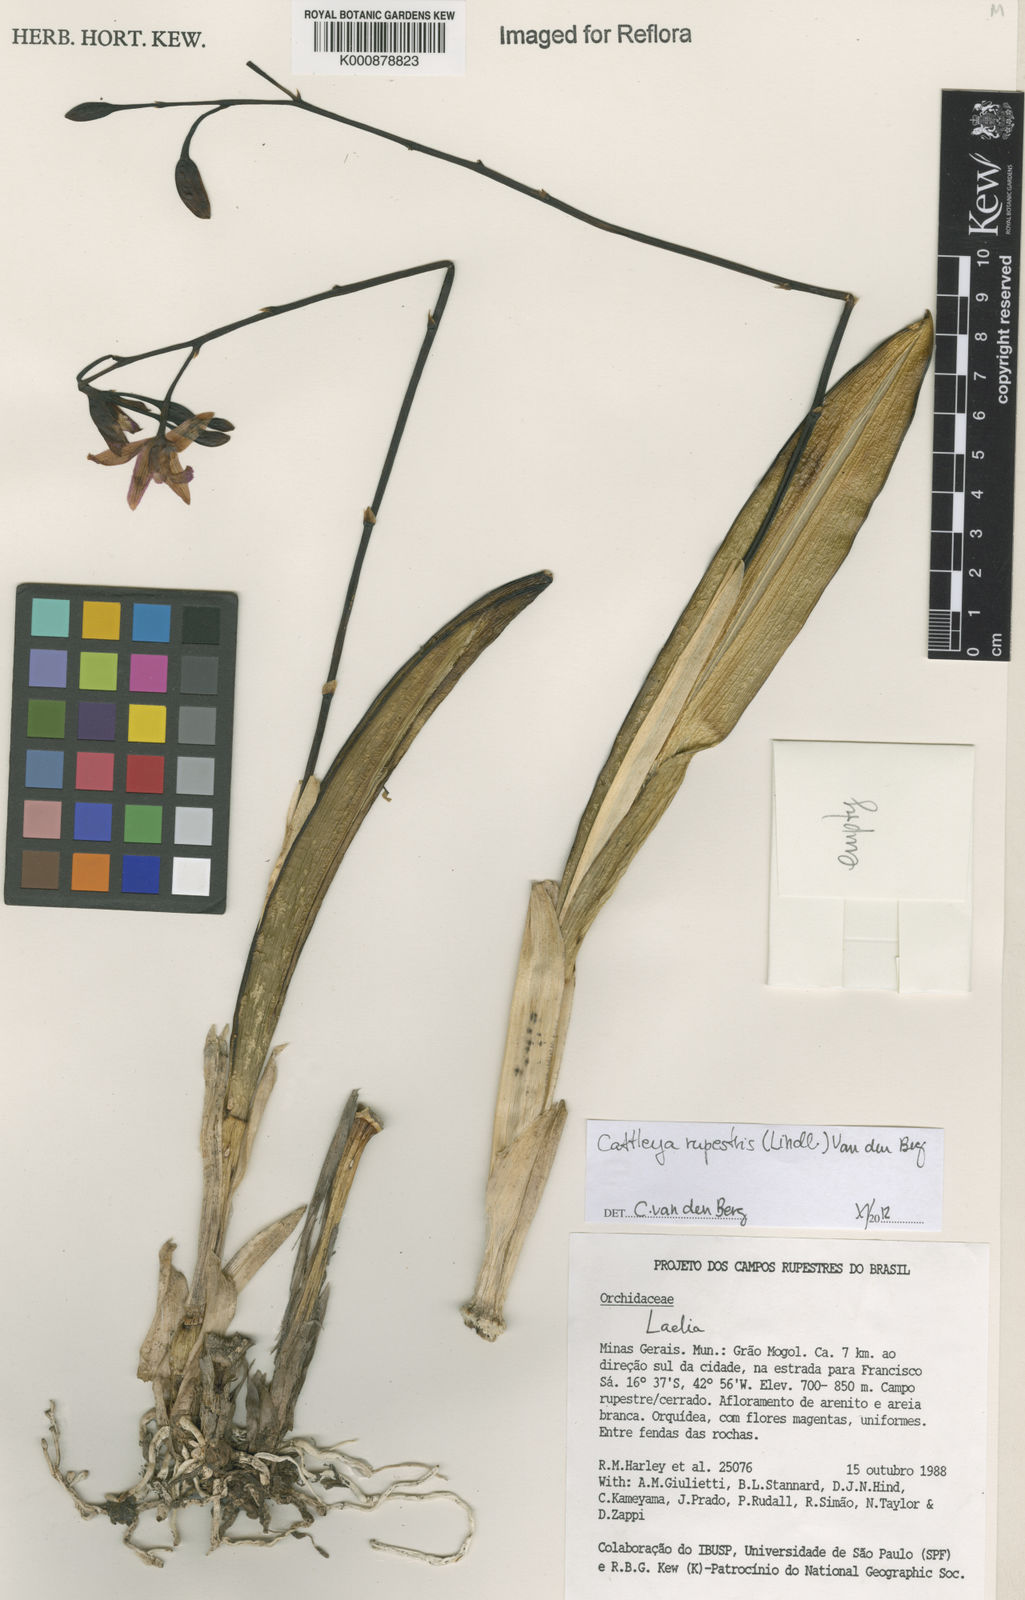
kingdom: Plantae
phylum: Tracheophyta
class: Liliopsida
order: Asparagales
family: Orchidaceae
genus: Cattleya
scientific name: Cattleya rupestris
